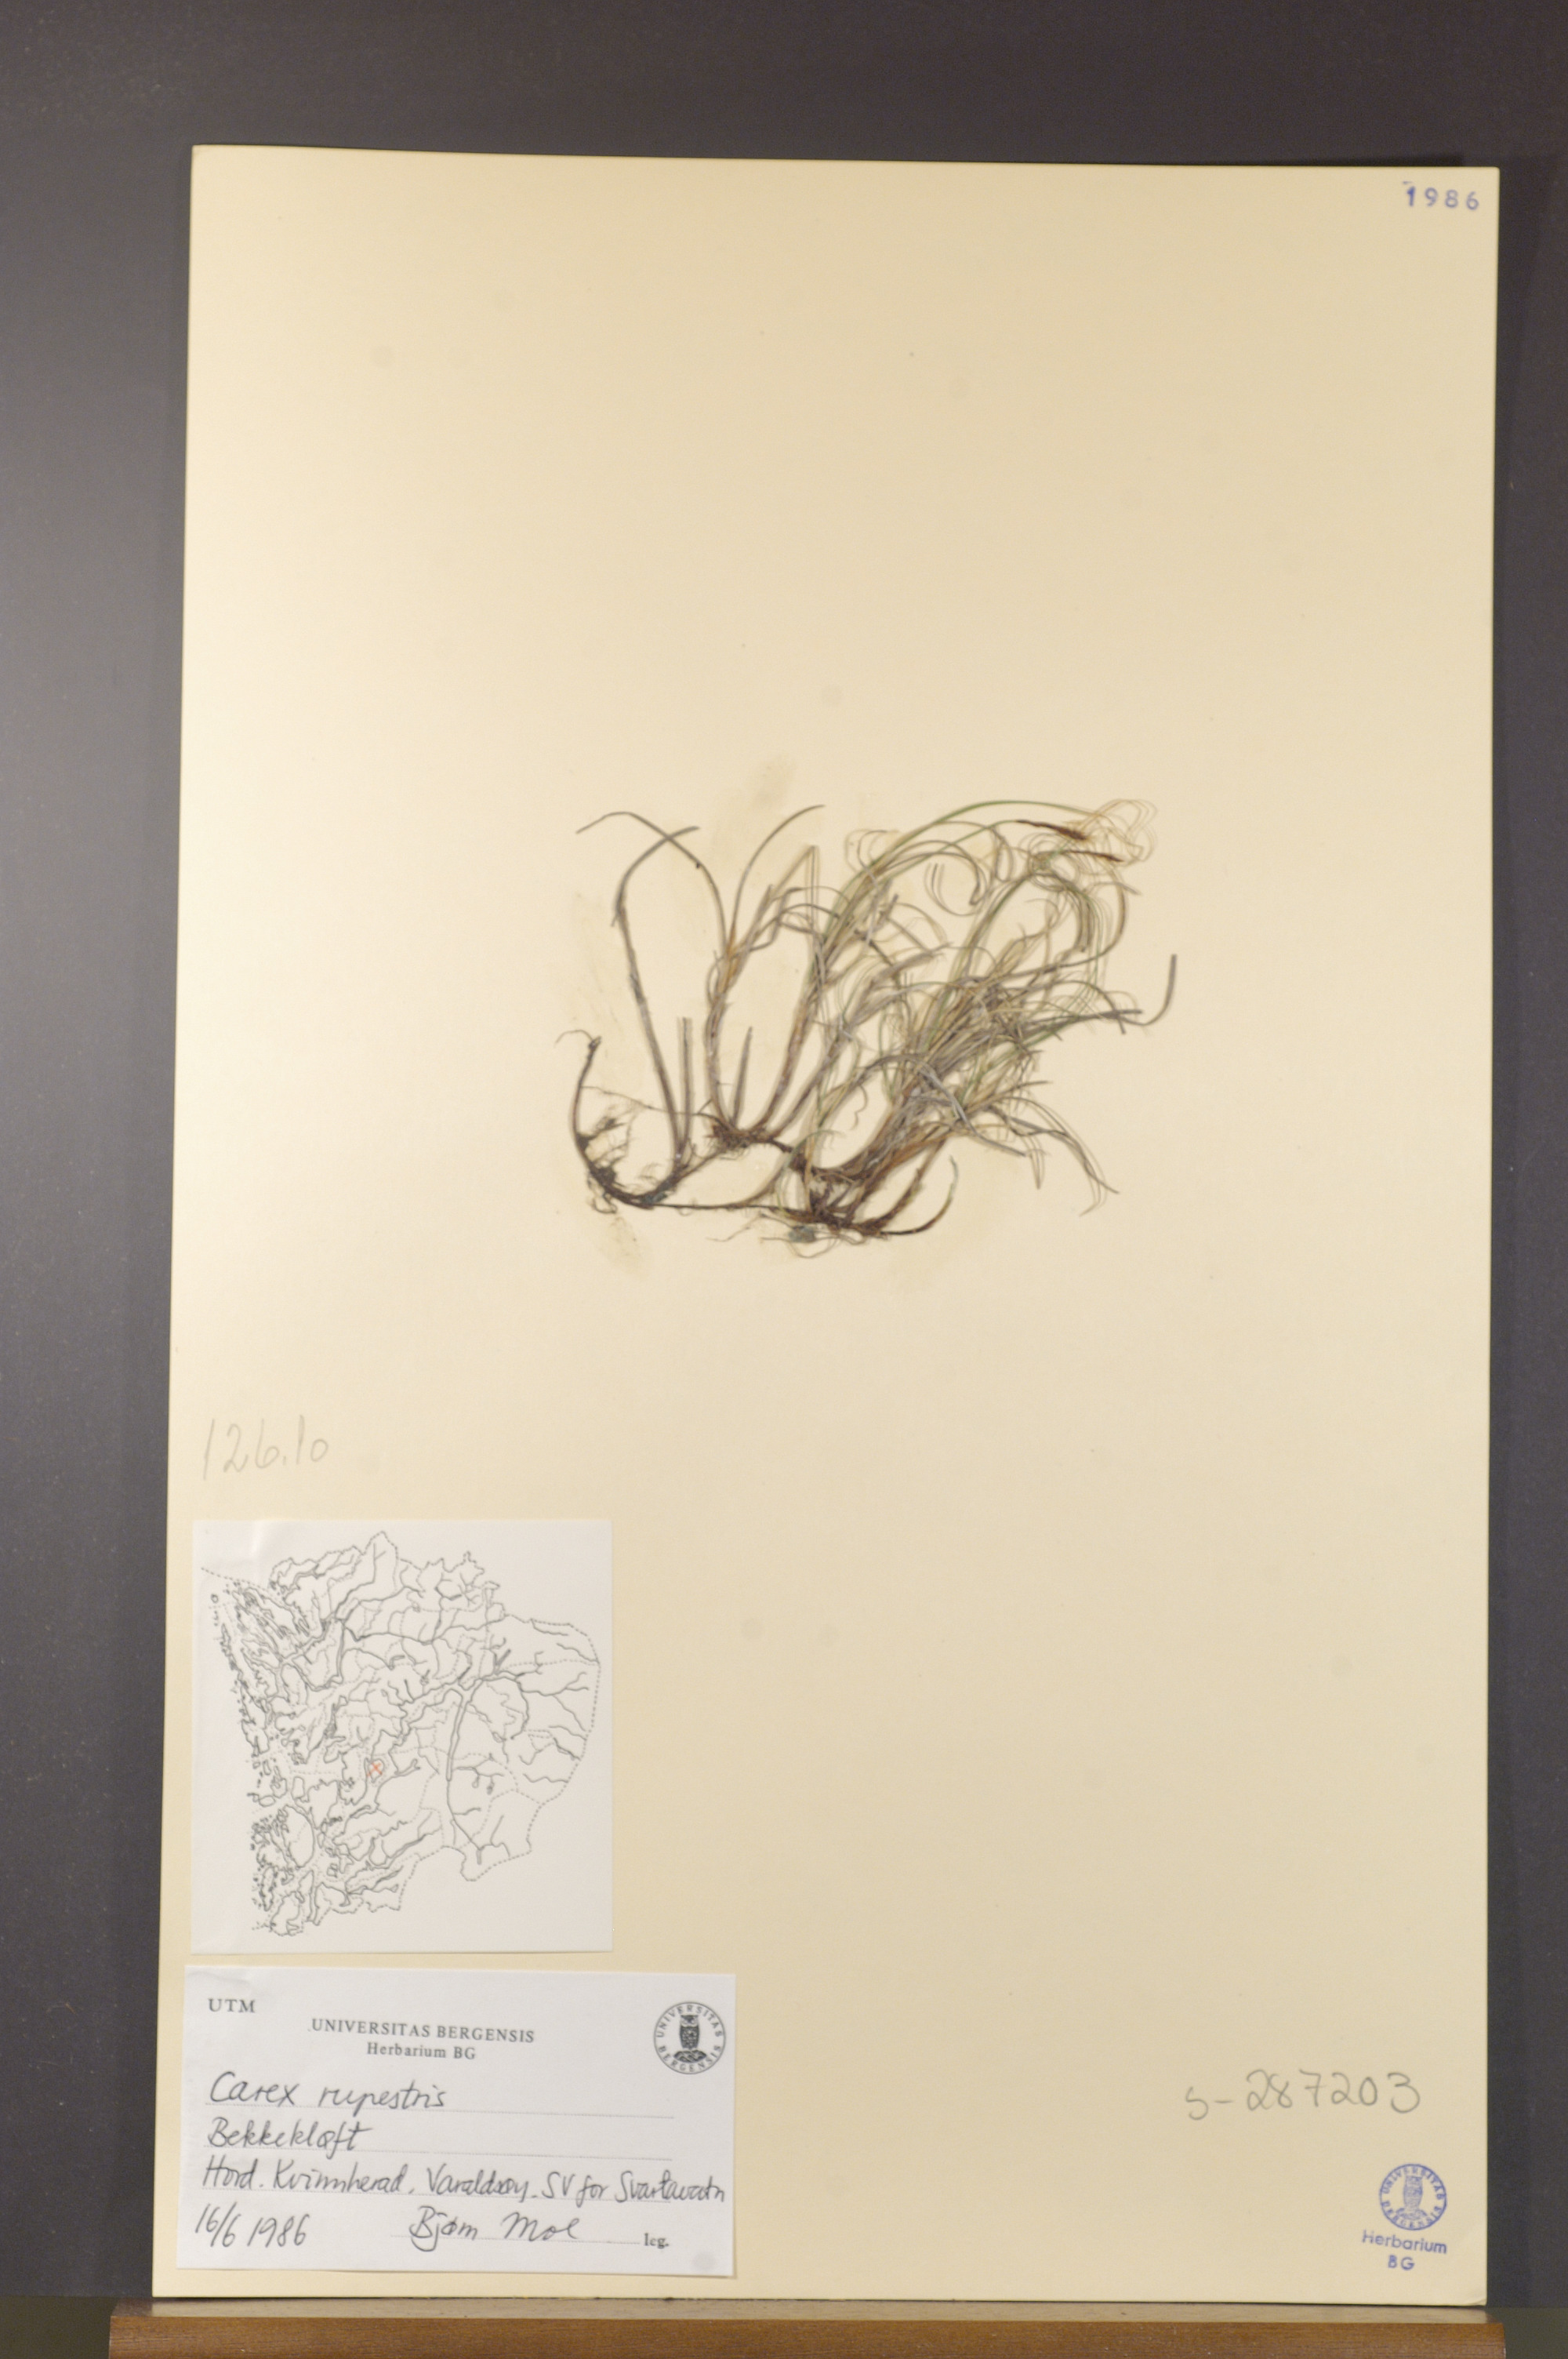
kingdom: Plantae
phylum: Tracheophyta
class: Liliopsida
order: Poales
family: Cyperaceae
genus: Carex
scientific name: Carex rupestris
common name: Rock sedge
